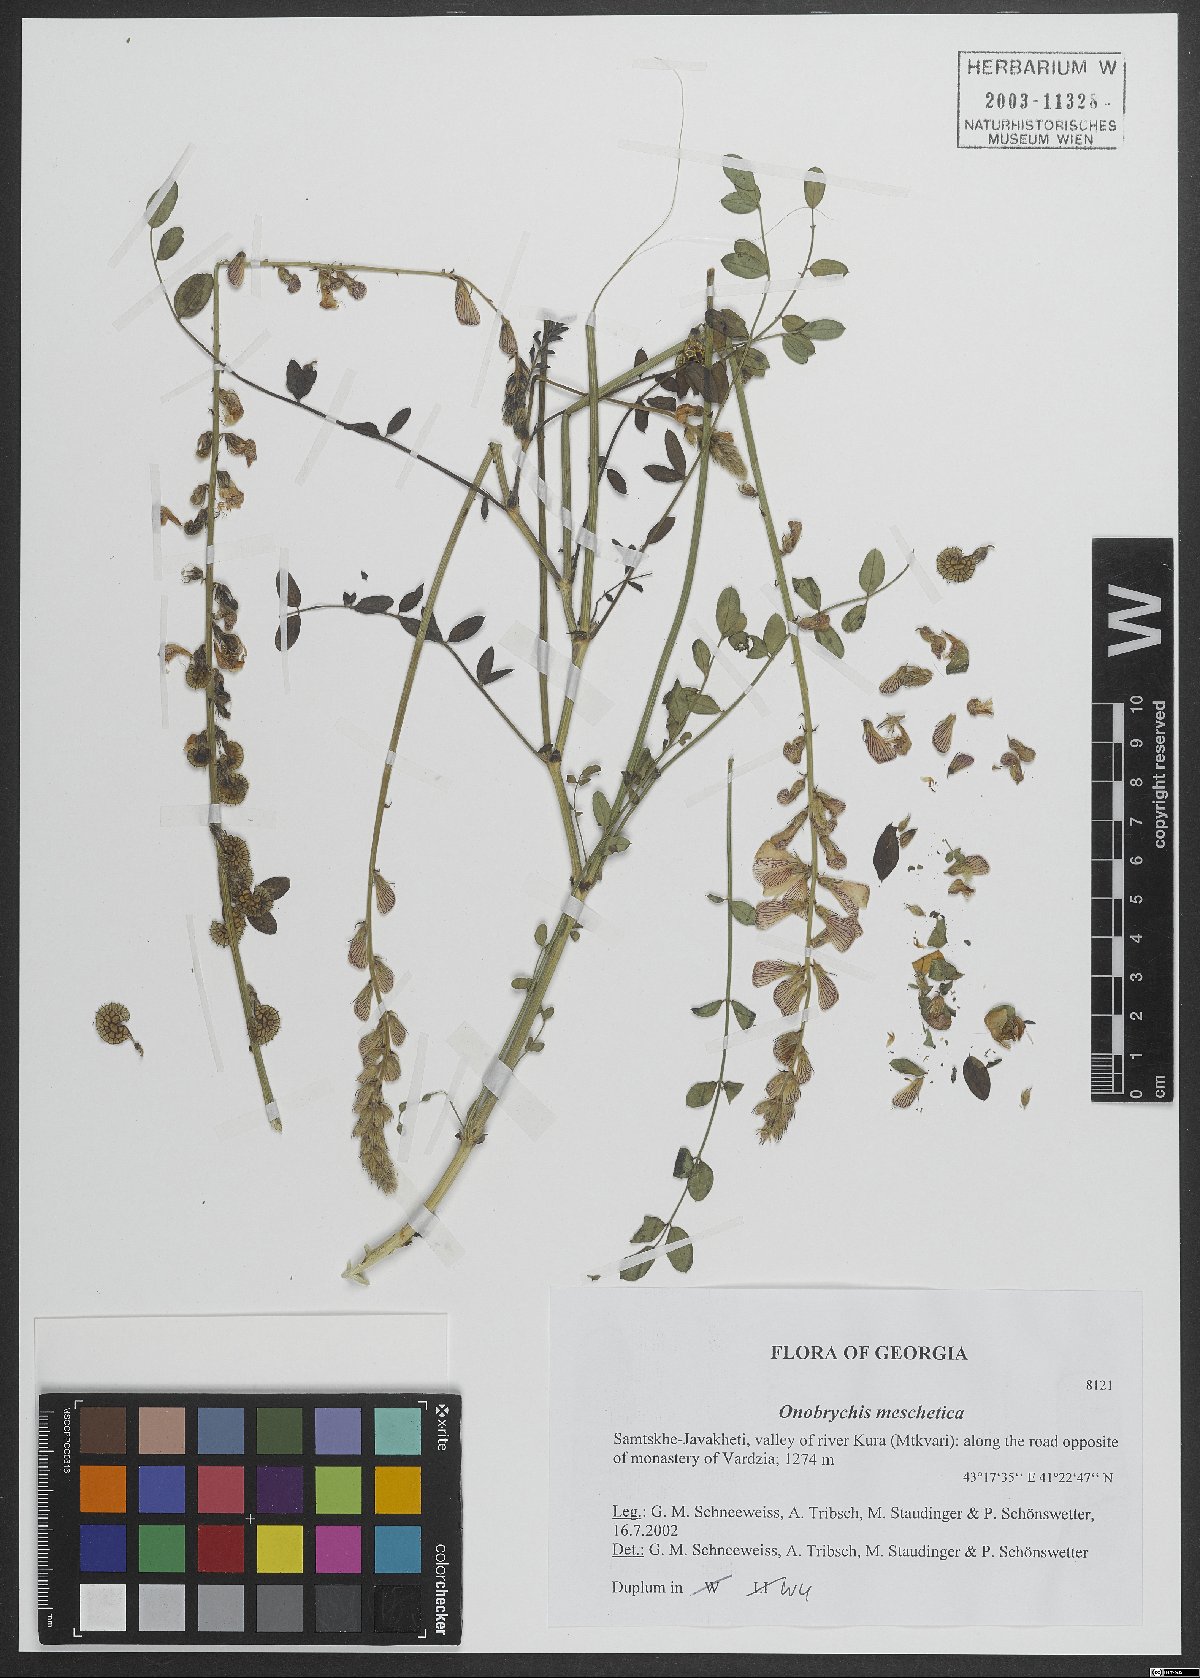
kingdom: Plantae
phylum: Tracheophyta
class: Magnoliopsida
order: Fabales
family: Fabaceae
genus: Onobrychis
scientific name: Onobrychis meschetica
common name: Meskhetian sainfoin
